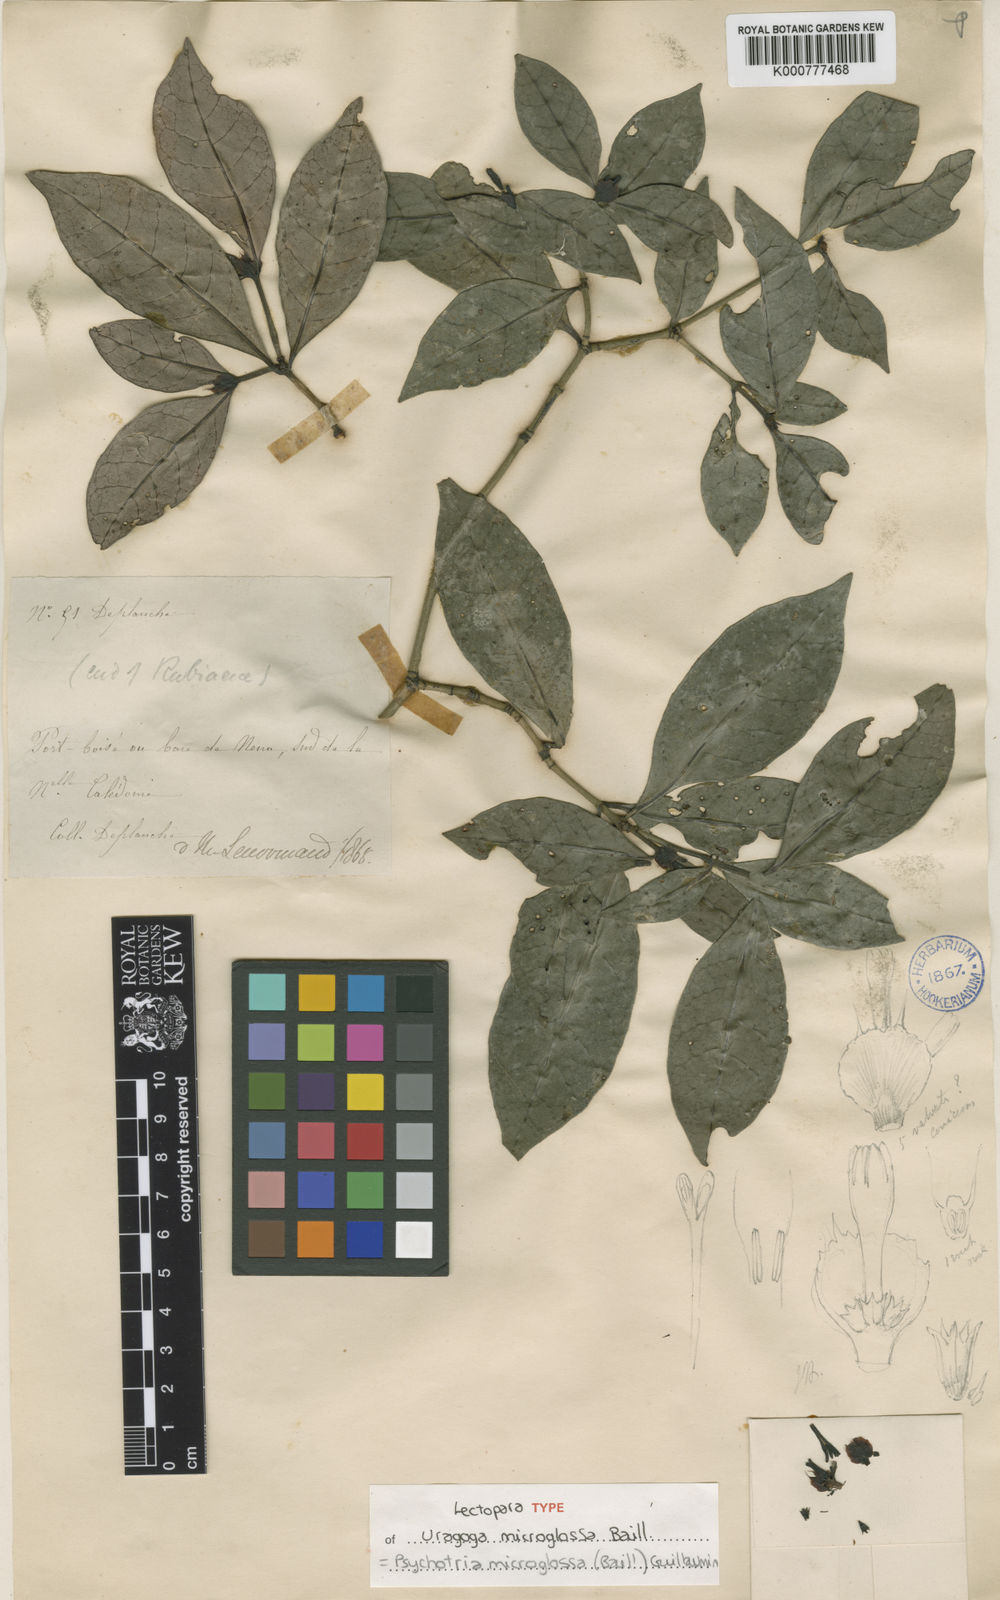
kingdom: Plantae
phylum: Tracheophyta
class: Magnoliopsida
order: Gentianales
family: Rubiaceae
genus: Psychotria
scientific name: Psychotria microglossa
